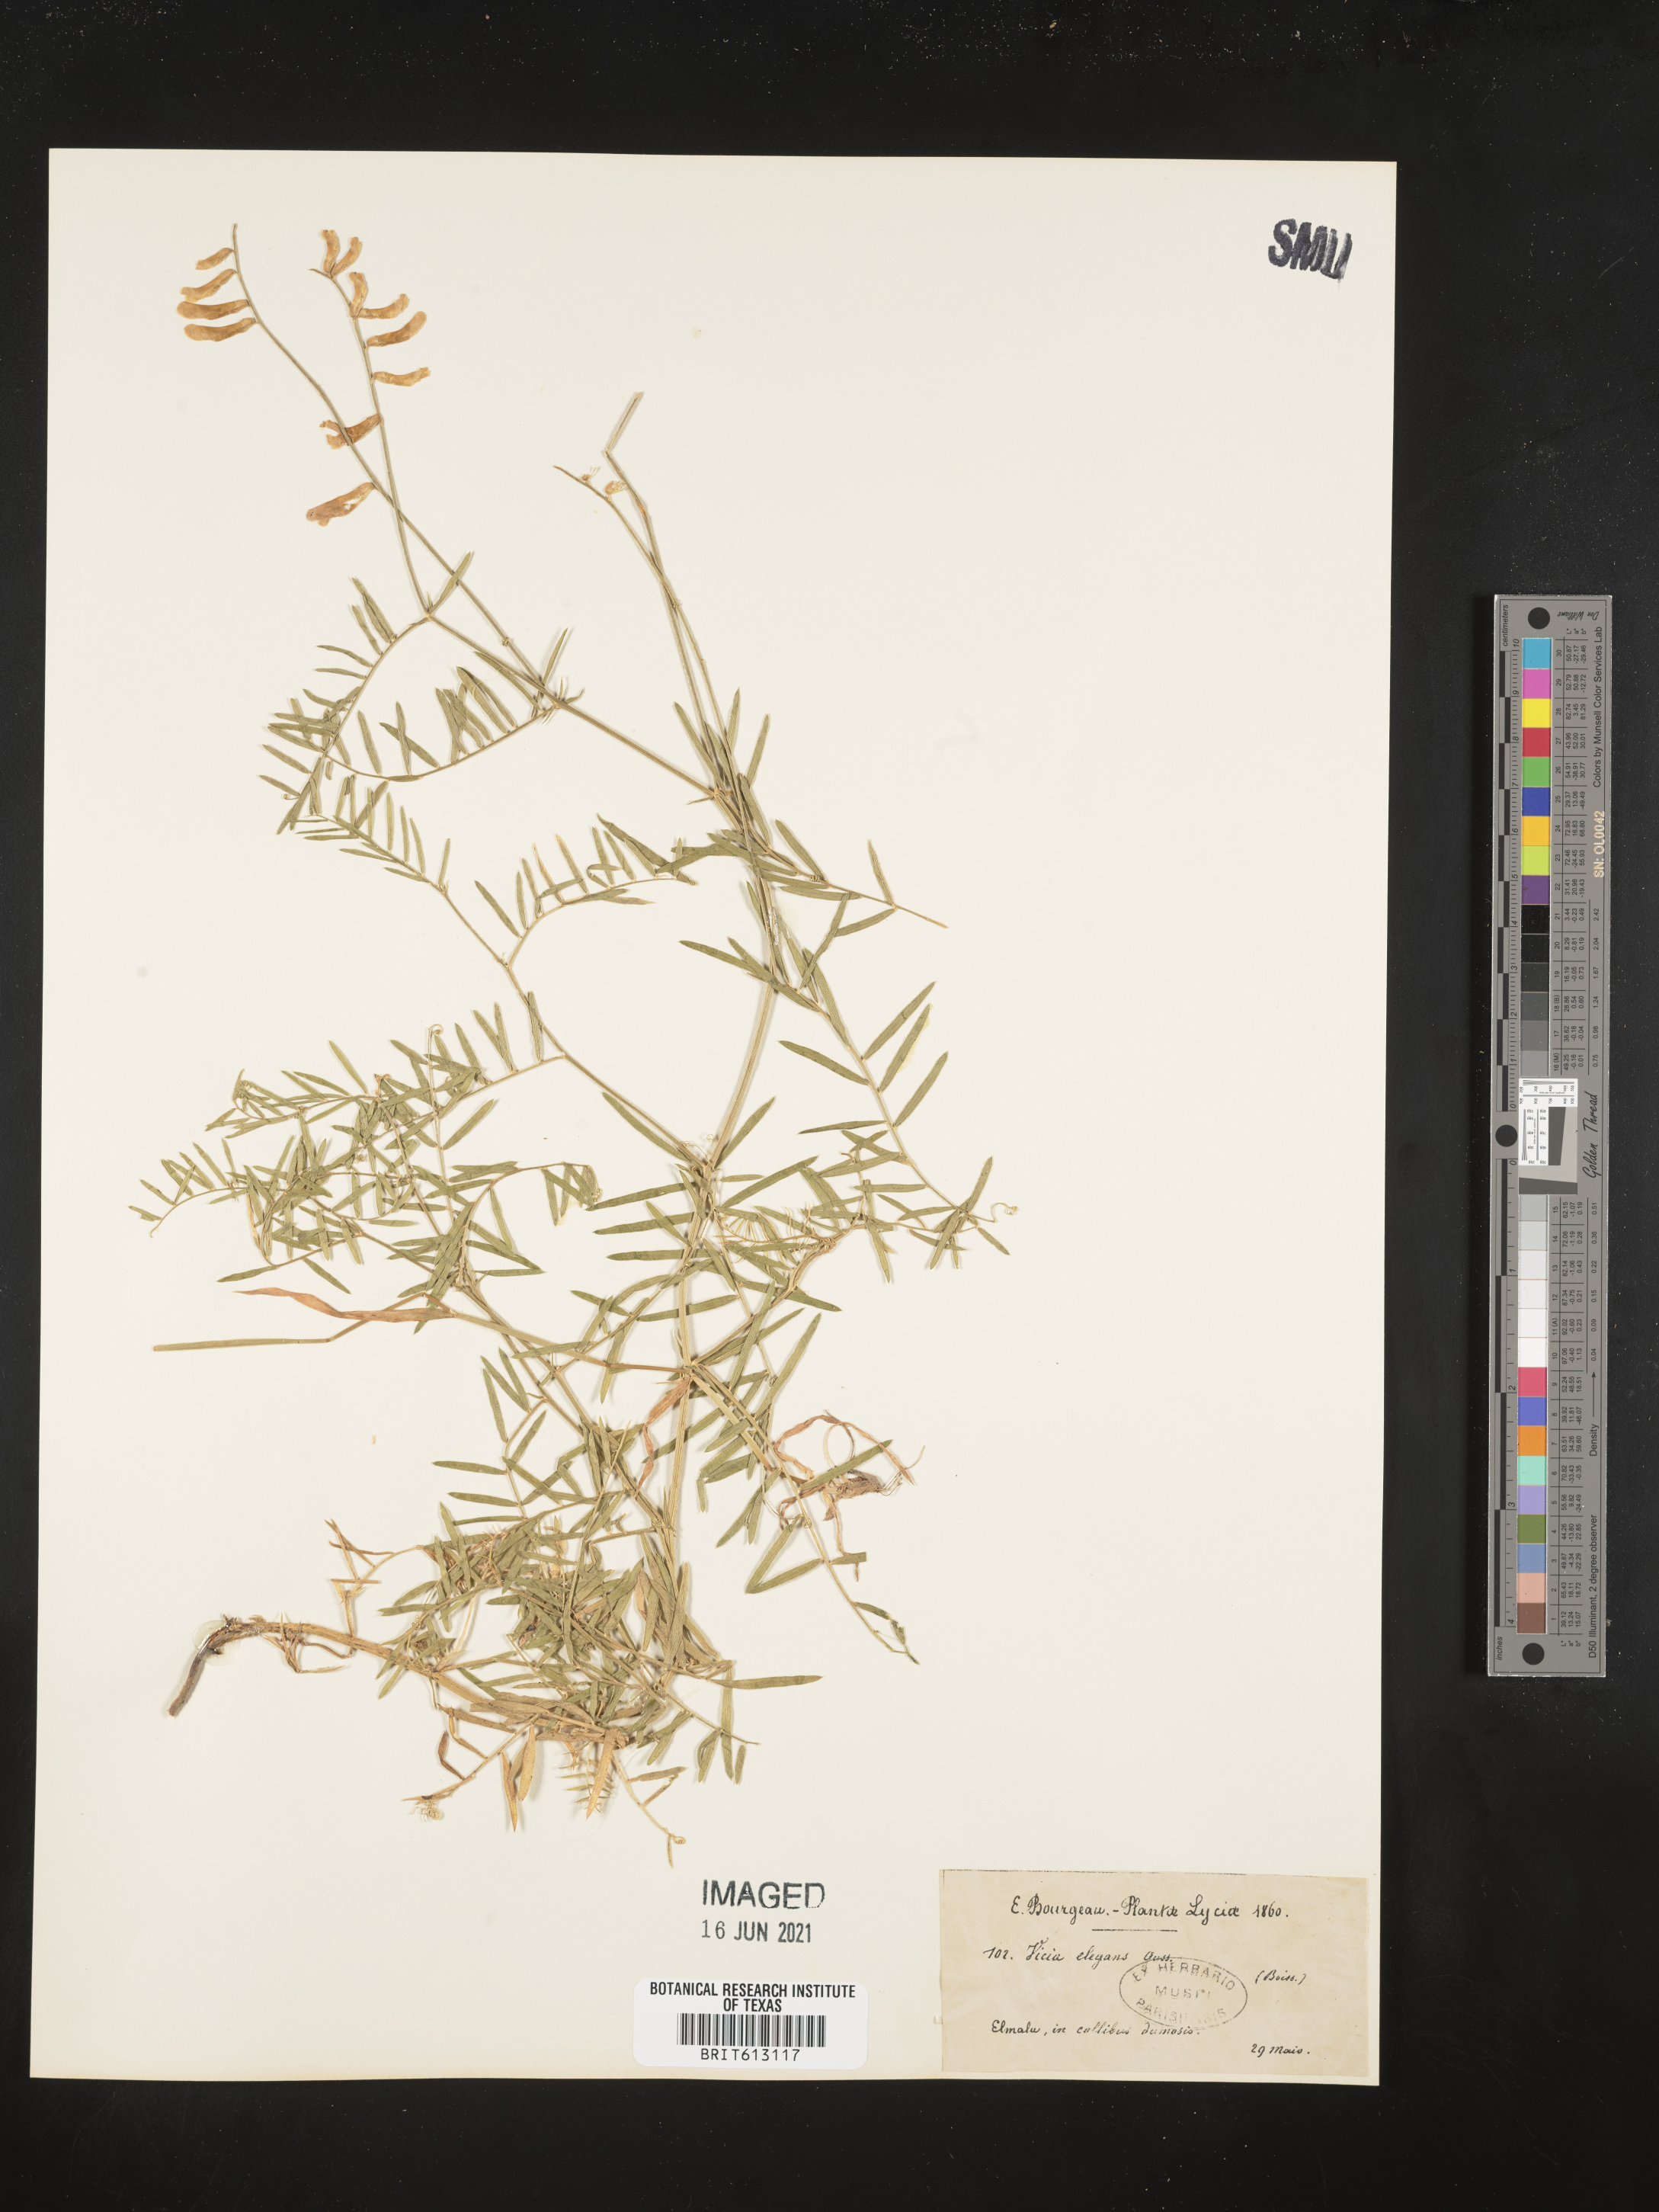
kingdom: Plantae
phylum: Tracheophyta
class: Magnoliopsida
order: Fabales
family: Fabaceae
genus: Vicia
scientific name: Vicia tenuifolia
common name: Fine-leaved vetch
